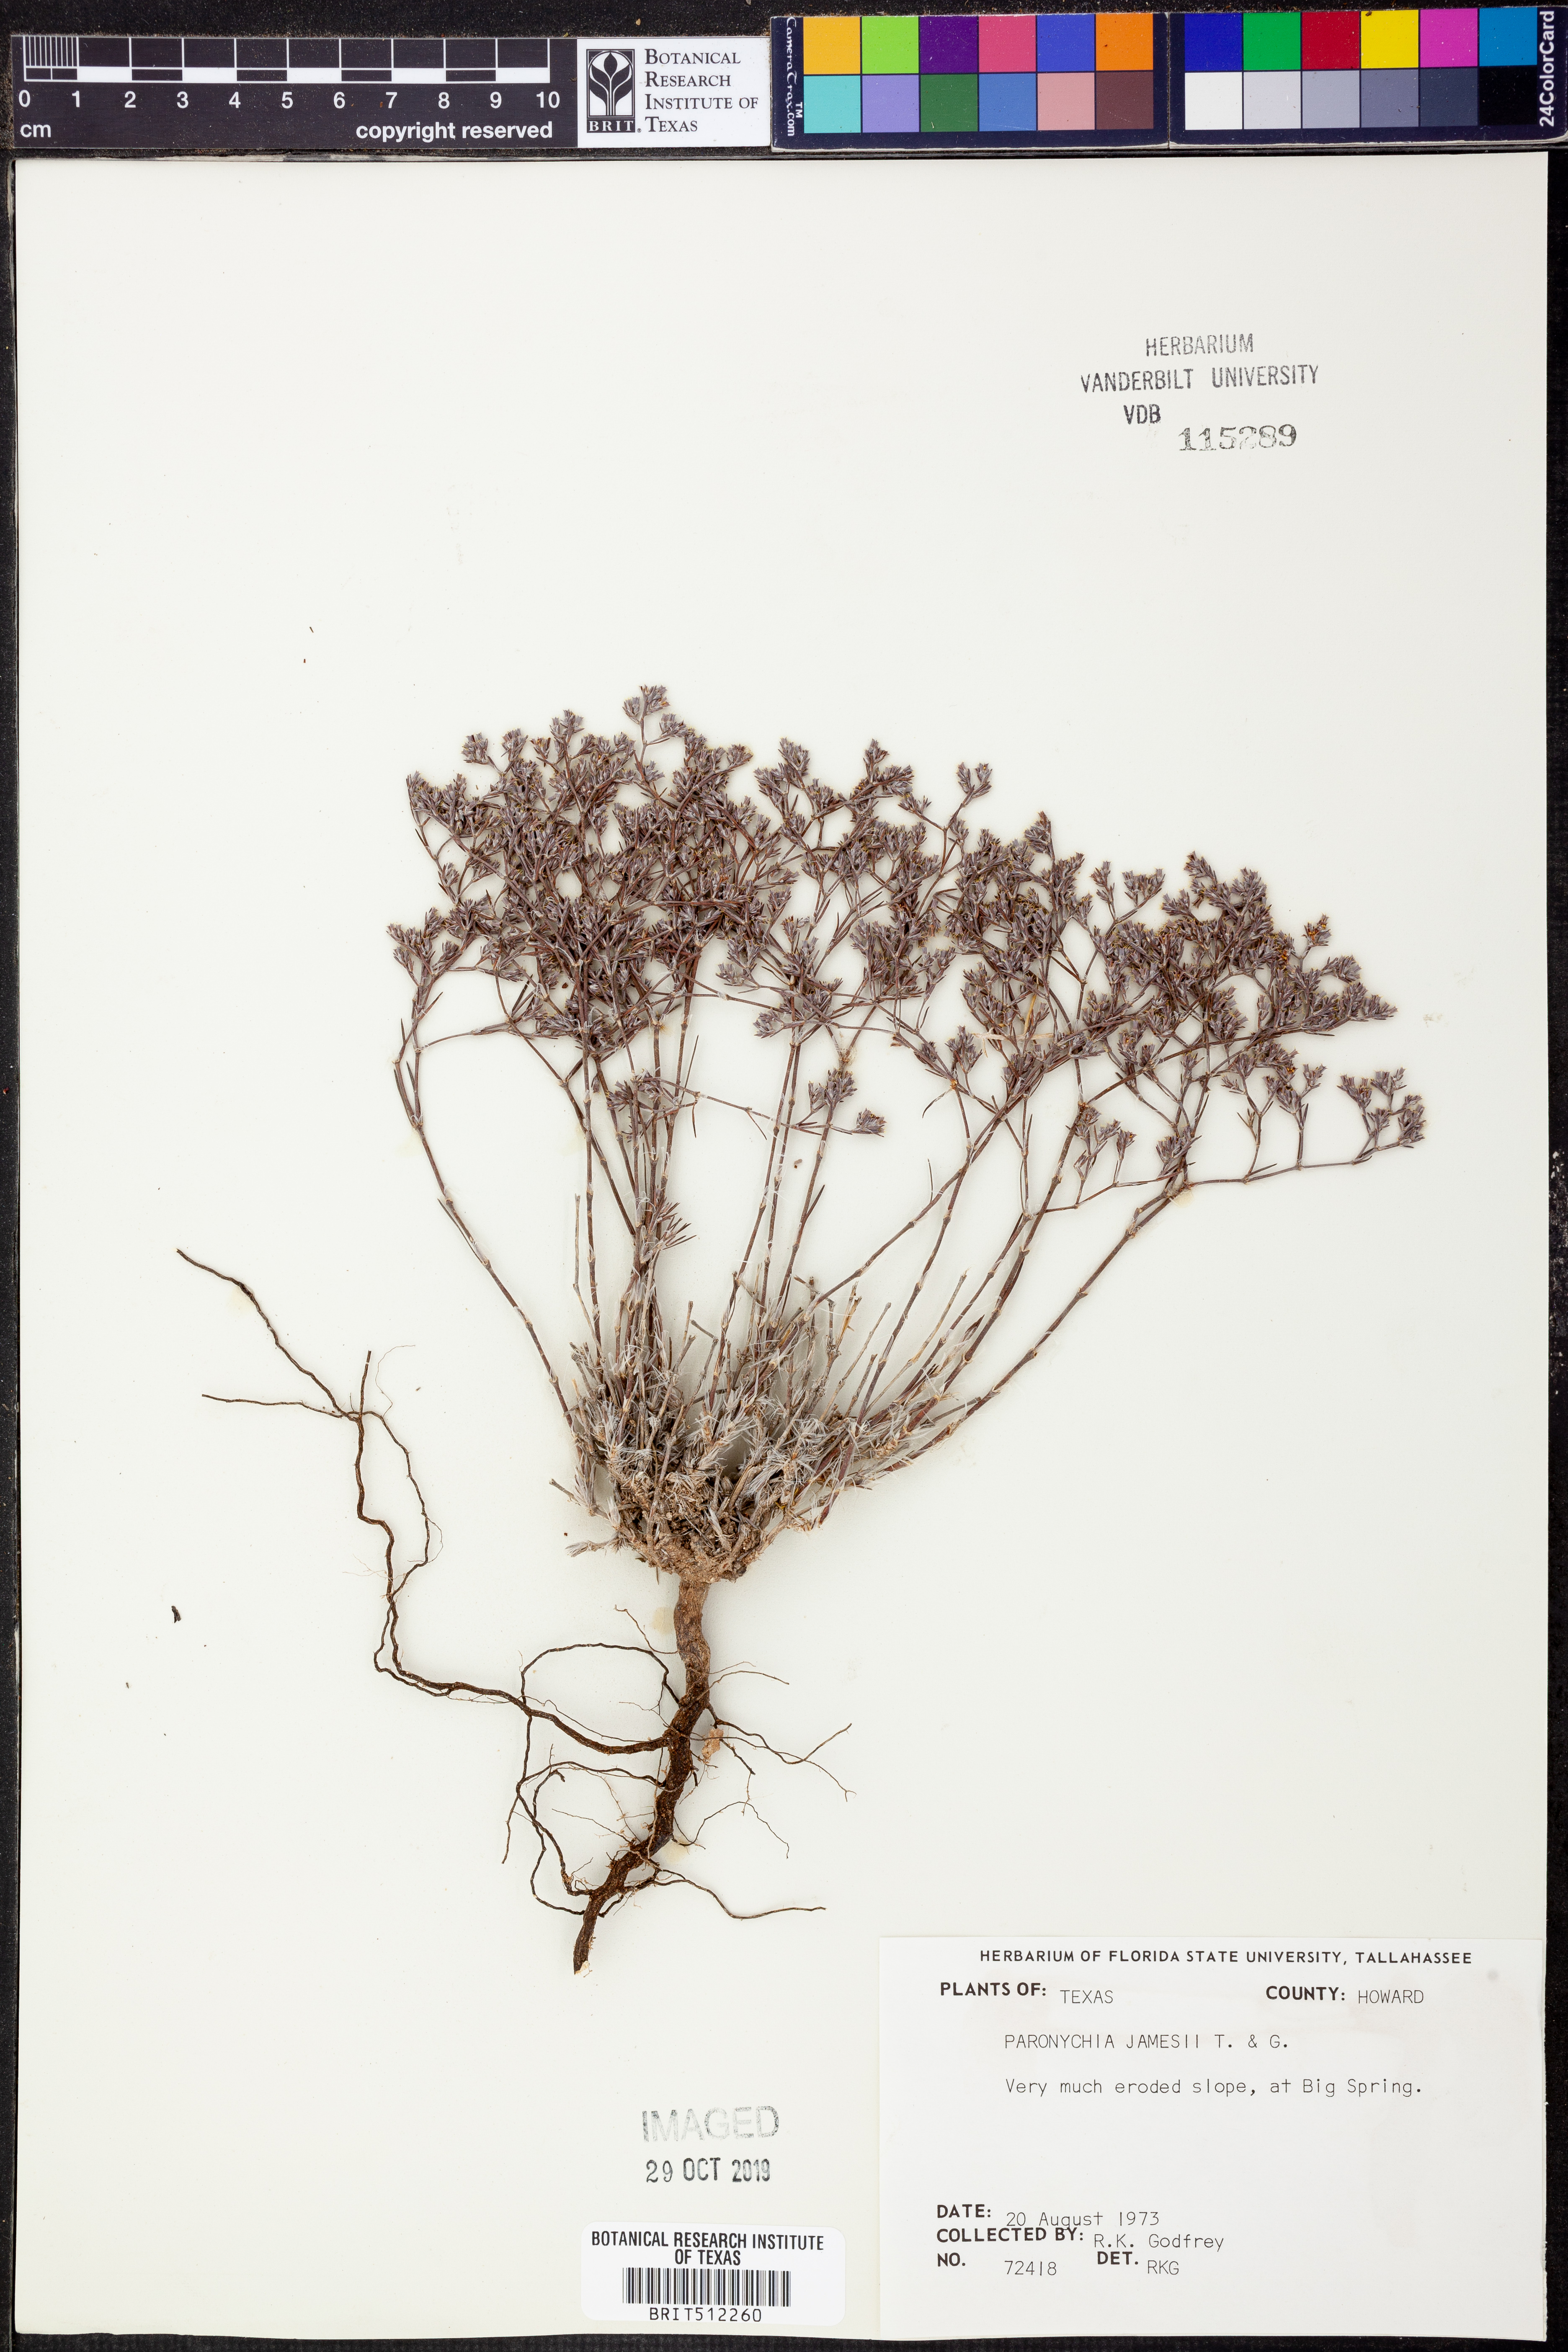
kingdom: Plantae
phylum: Tracheophyta
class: Magnoliopsida
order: Caryophyllales
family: Caryophyllaceae
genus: Paronychia
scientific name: Paronychia jamesii
